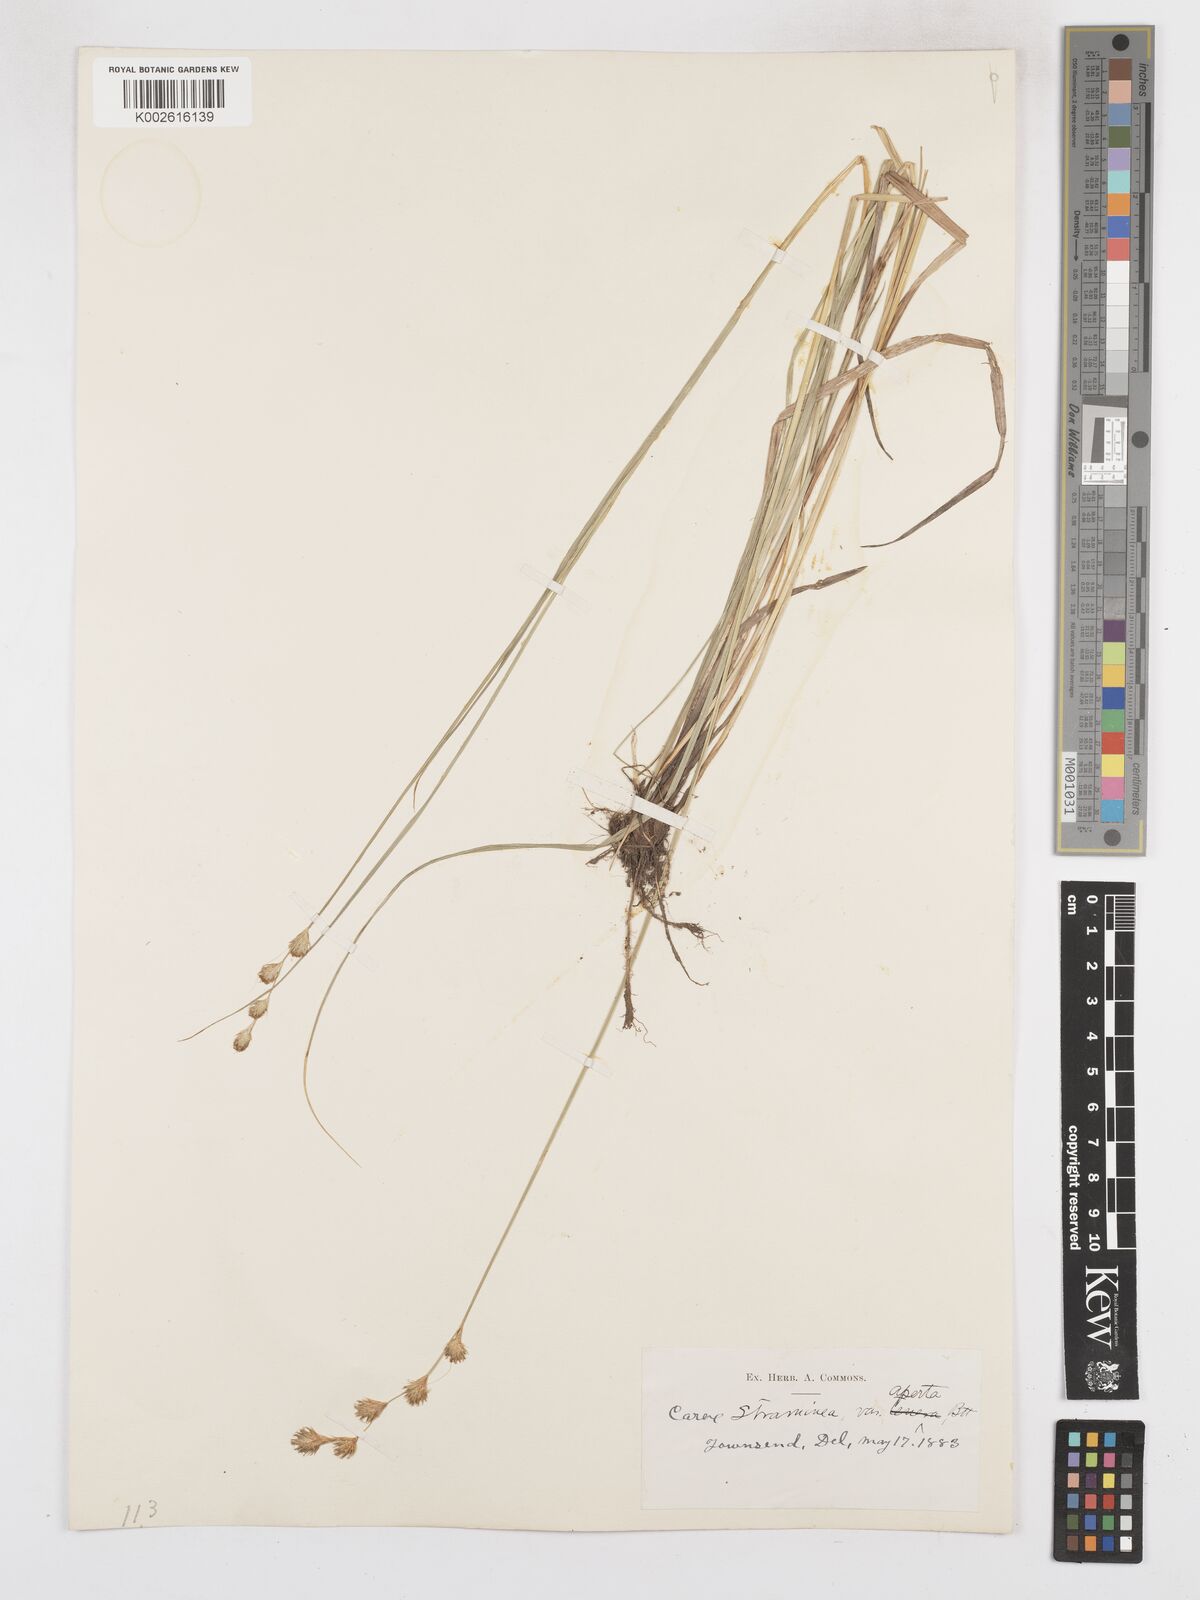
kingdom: Plantae
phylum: Tracheophyta
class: Liliopsida
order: Poales
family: Cyperaceae
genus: Carex
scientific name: Carex brevior
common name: Brevior sedge
